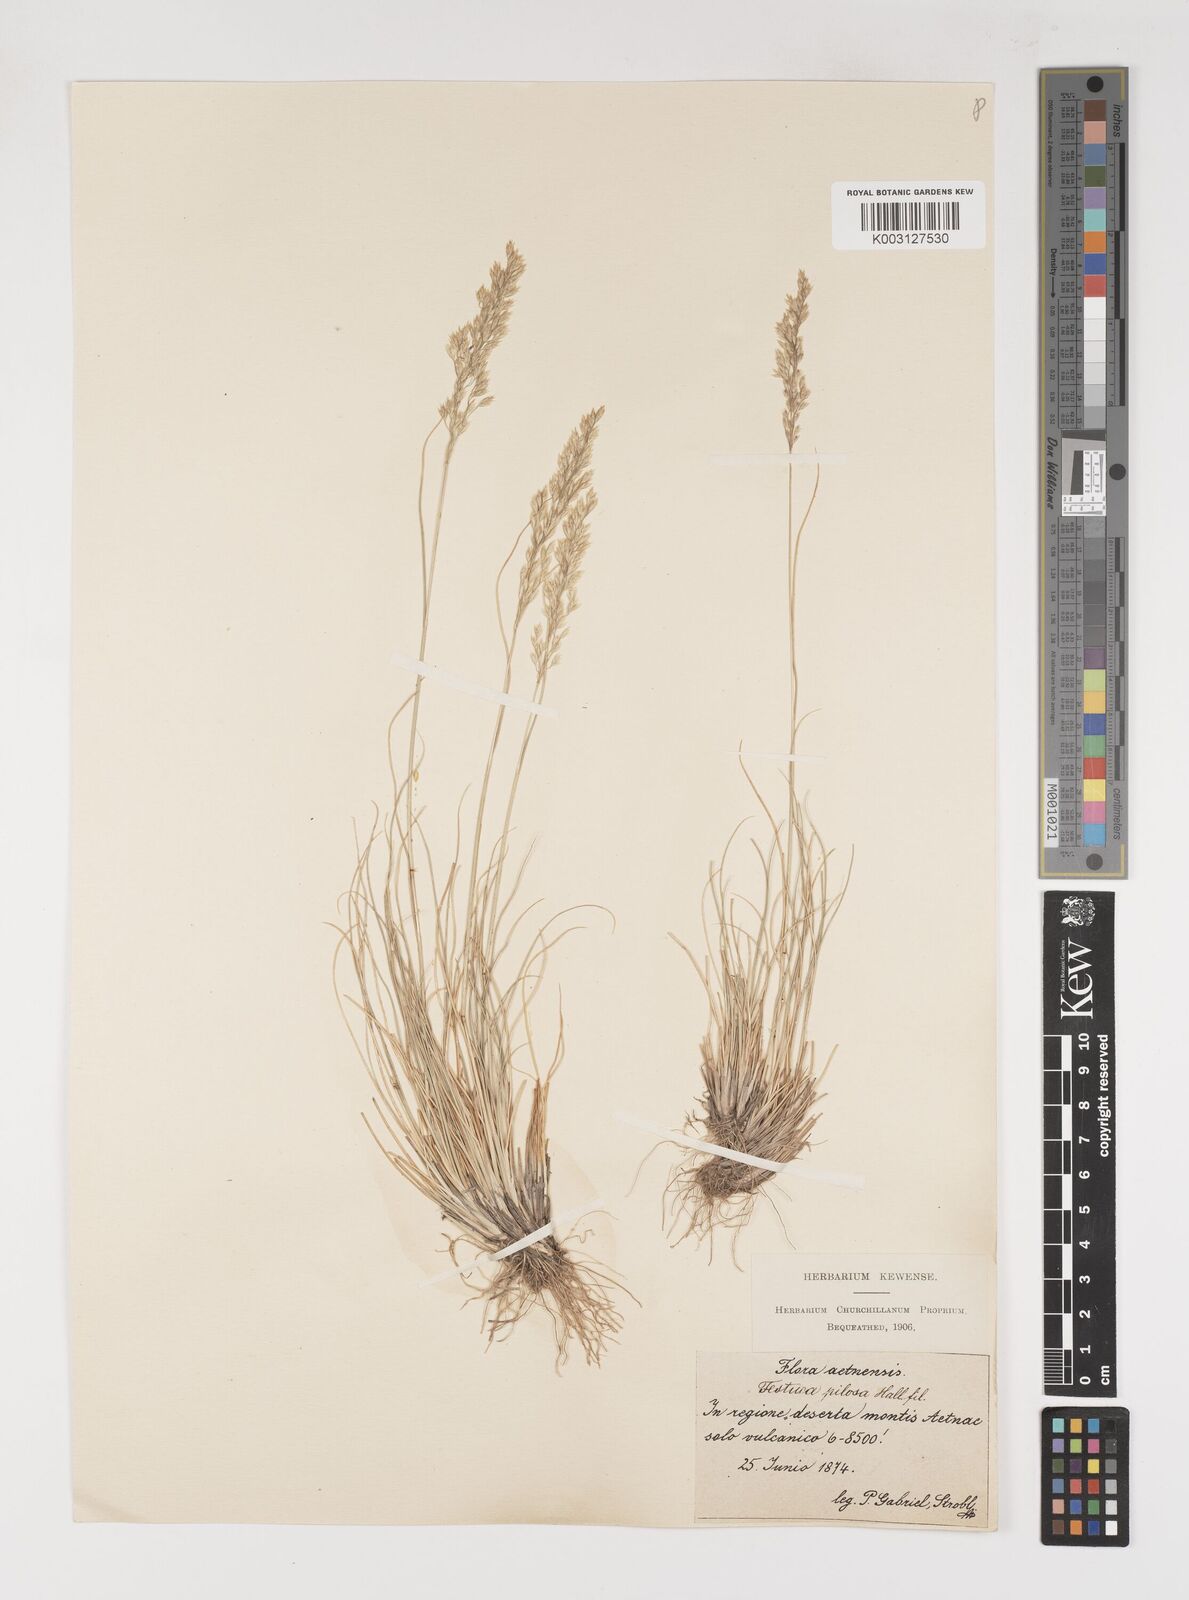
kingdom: Plantae
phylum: Tracheophyta
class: Liliopsida
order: Poales
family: Poaceae
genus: Bellardiochloa
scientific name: Bellardiochloa variegata
